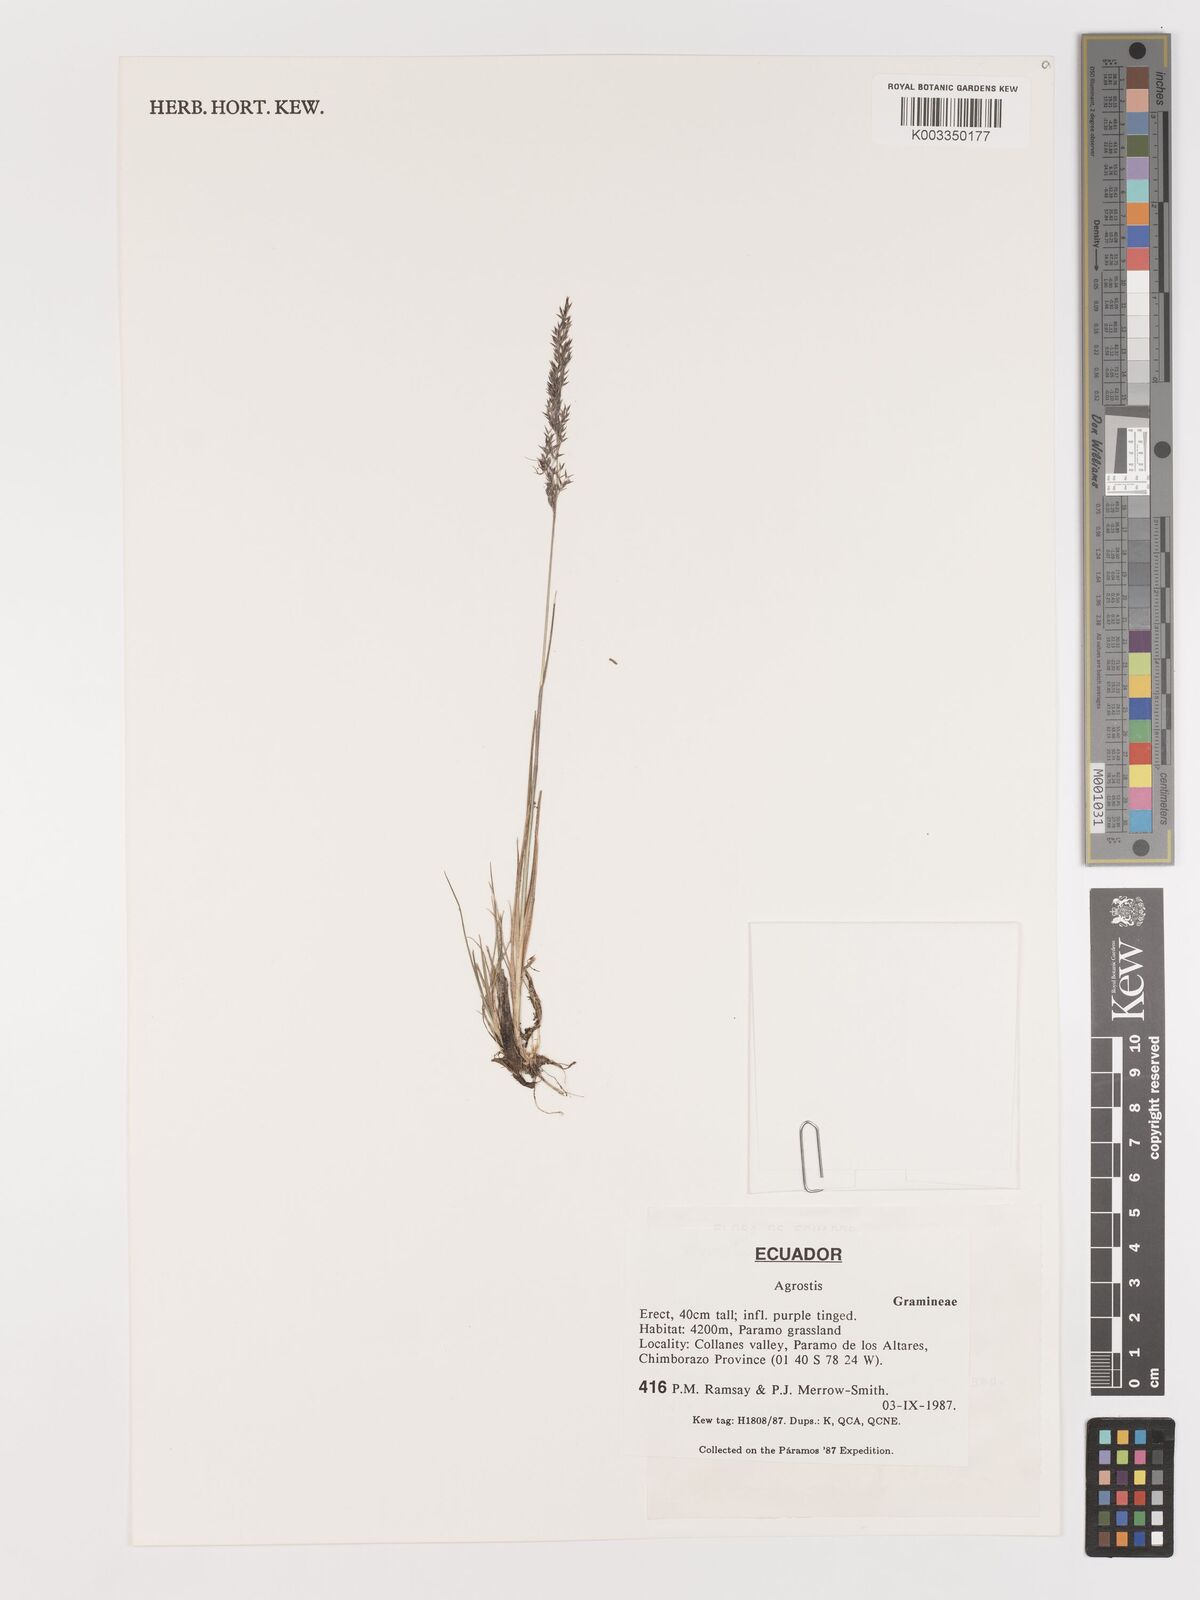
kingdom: Plantae
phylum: Tracheophyta
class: Liliopsida
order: Poales
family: Poaceae
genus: Agrostis
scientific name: Agrostis
